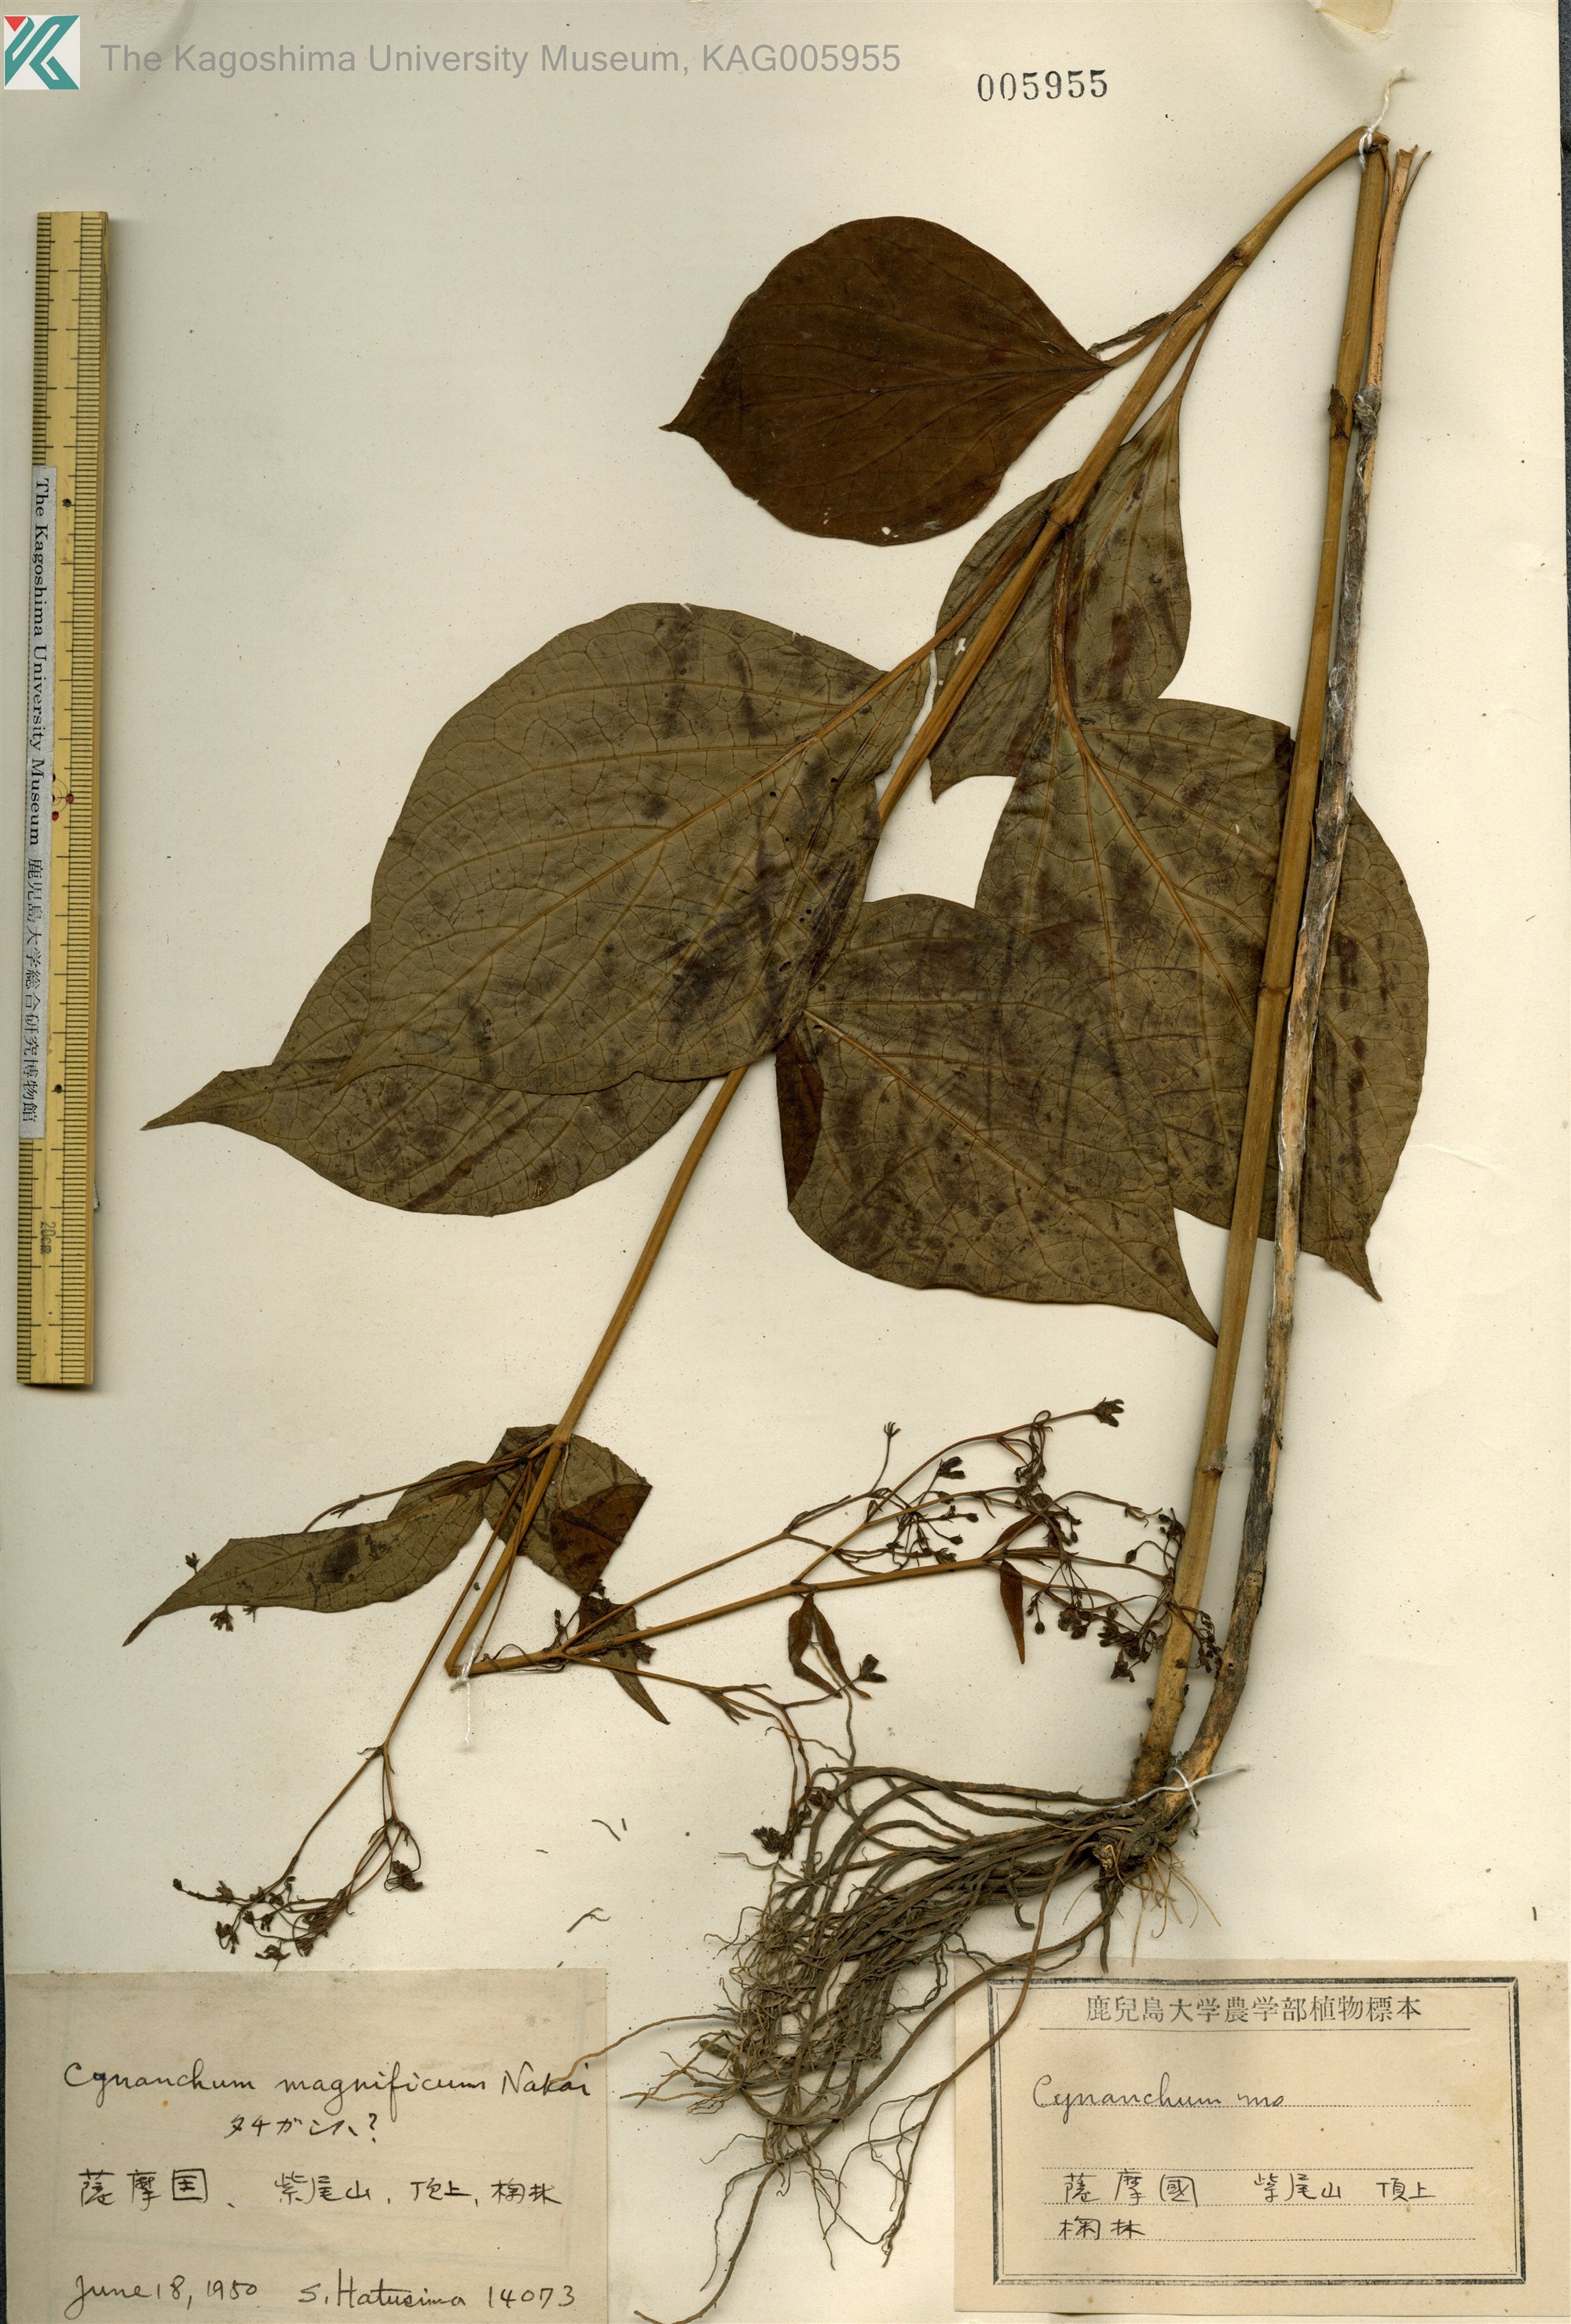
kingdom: Plantae
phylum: Tracheophyta
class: Magnoliopsida
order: Gentianales
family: Apocynaceae
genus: Vincetoxicum
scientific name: Vincetoxicum macrophyllum
